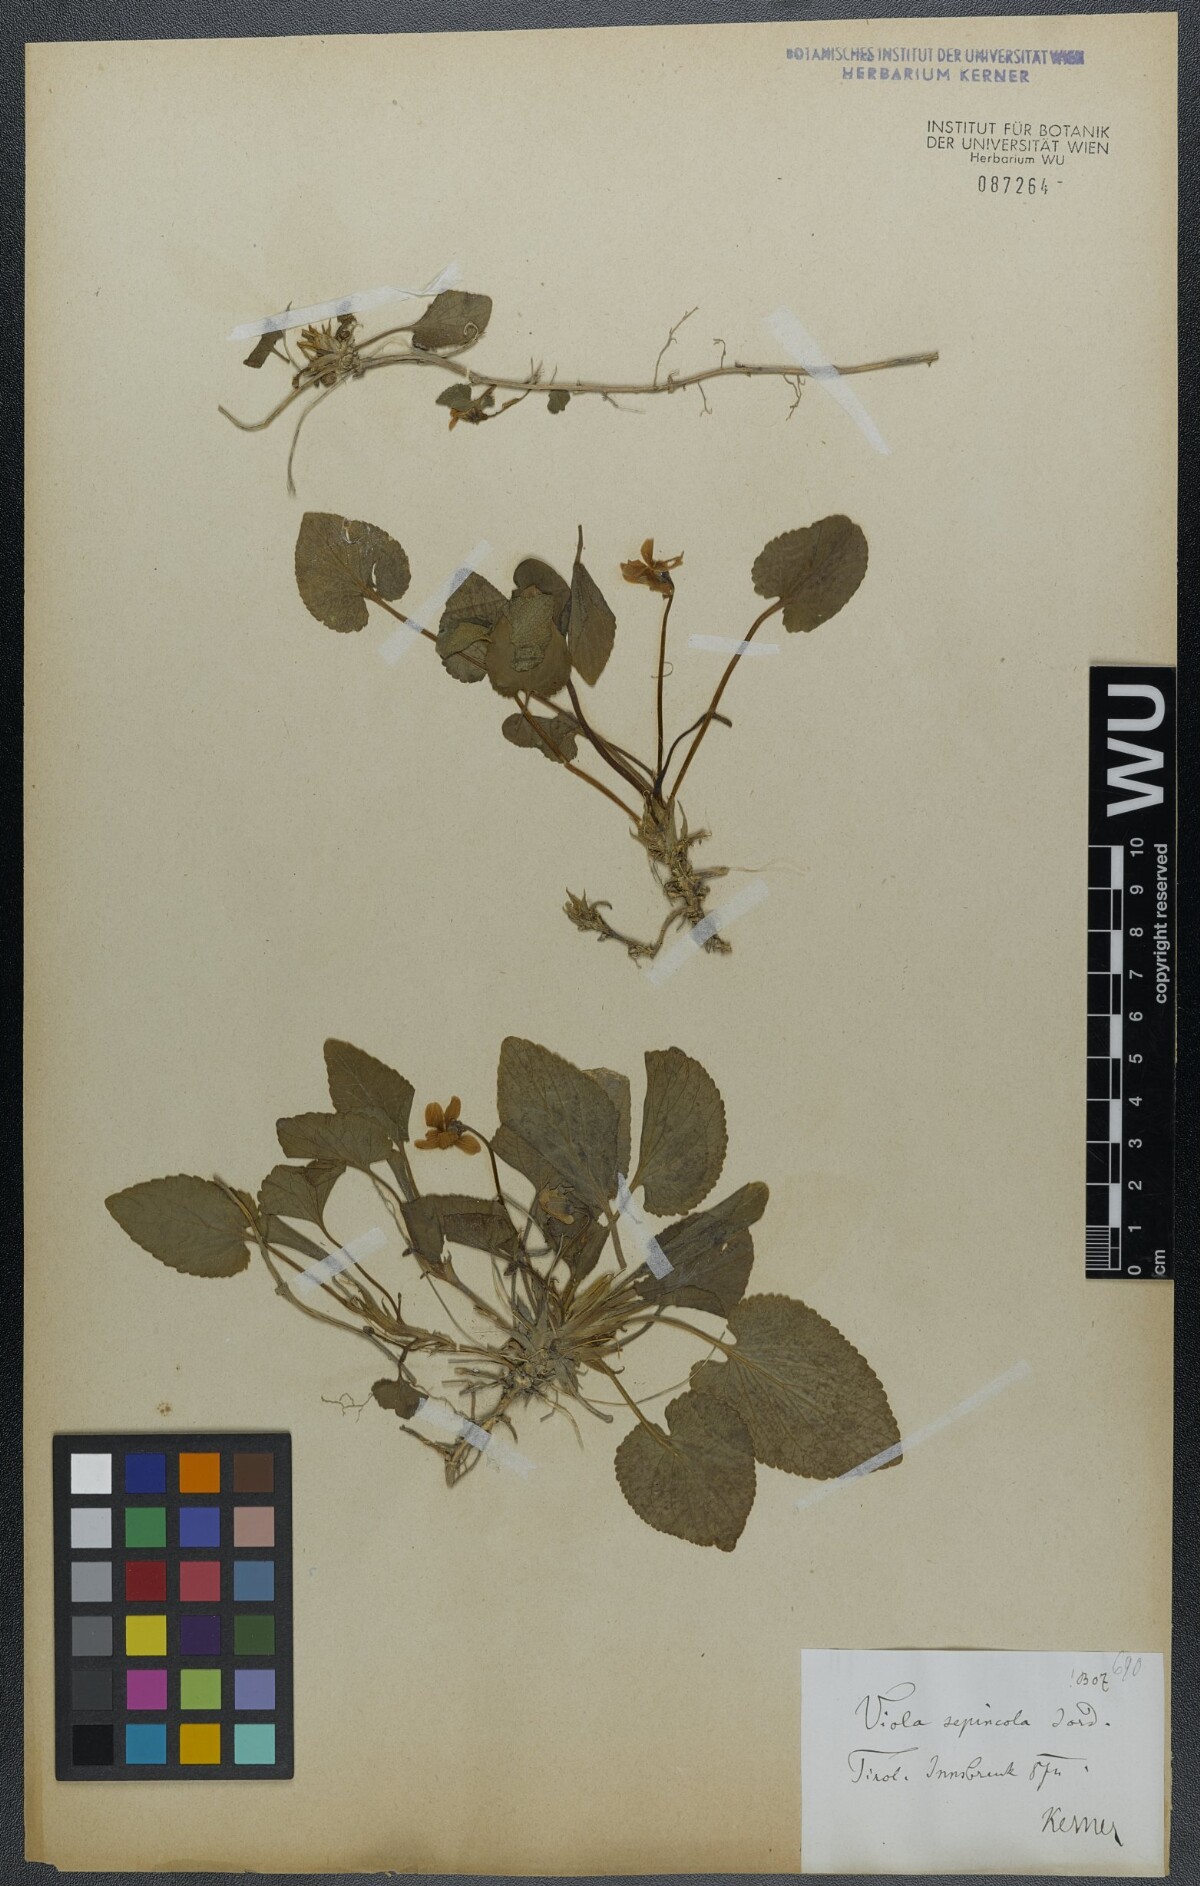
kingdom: Plantae
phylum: Tracheophyta
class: Magnoliopsida
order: Malpighiales
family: Violaceae
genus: Viola
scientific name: Viola suavis
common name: Russian violet
